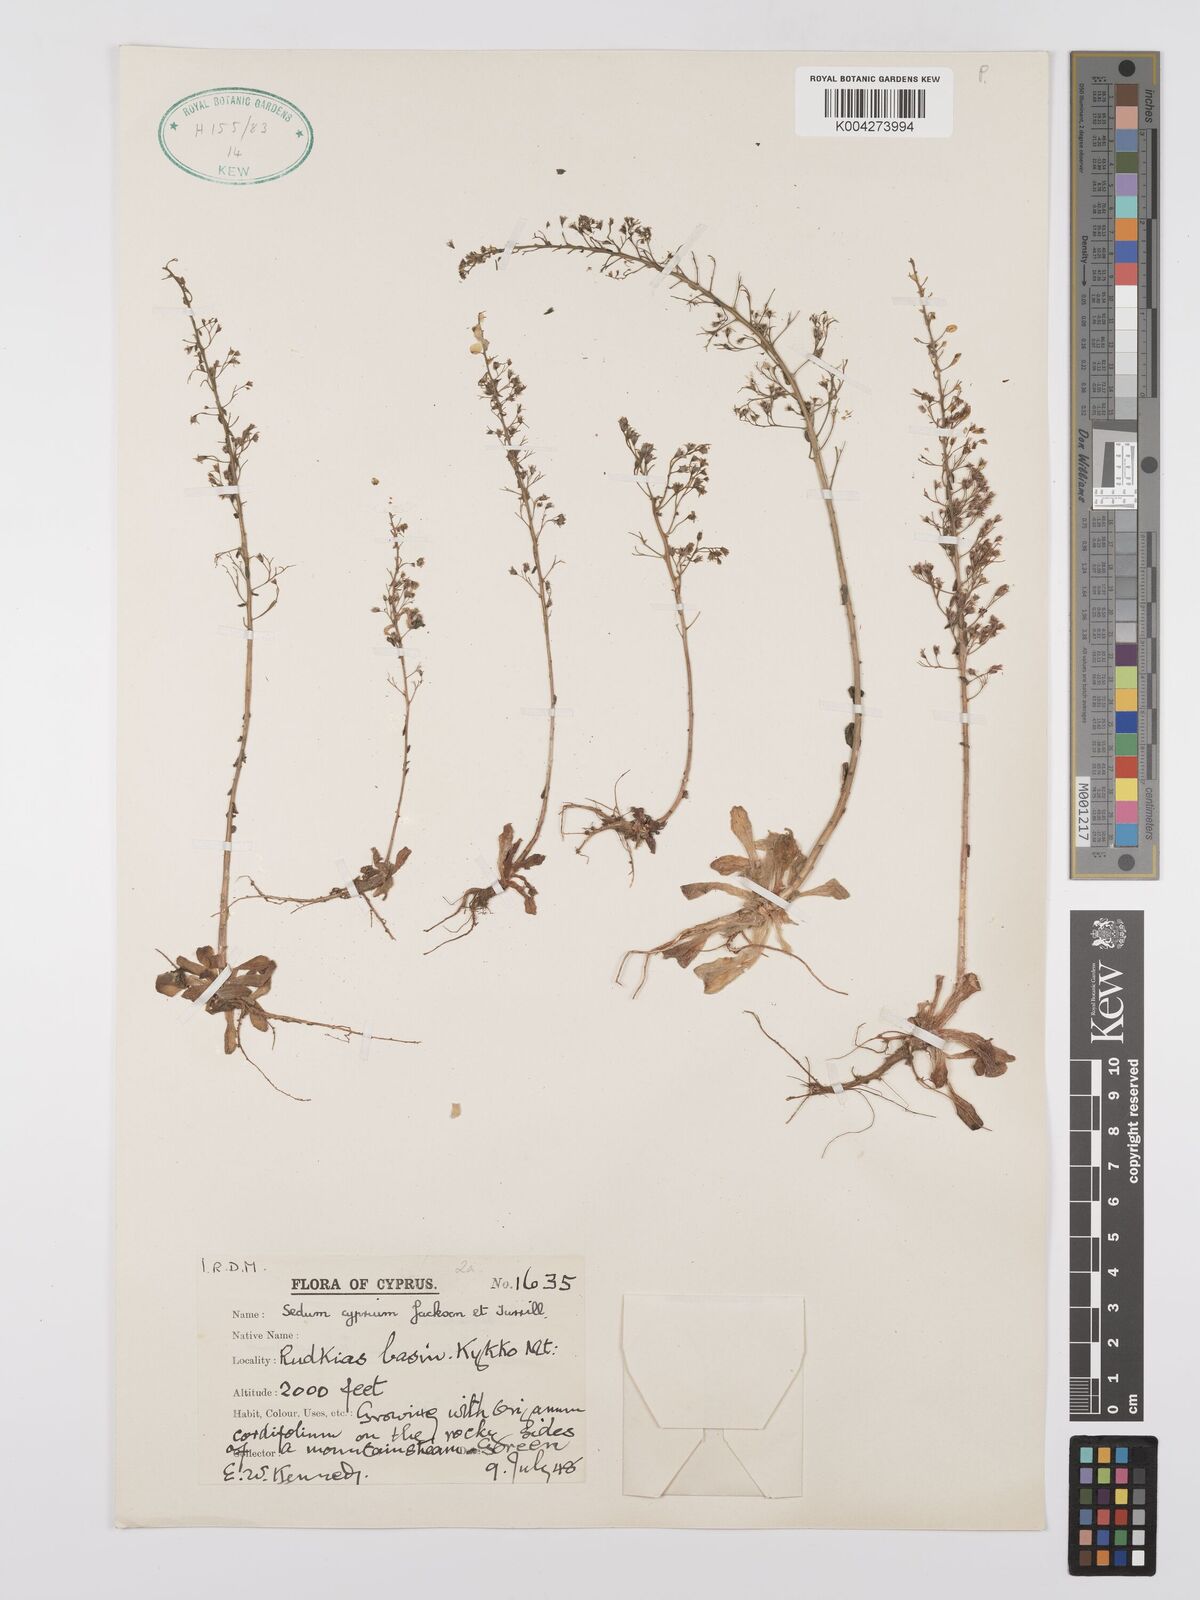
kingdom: Plantae
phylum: Tracheophyta
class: Magnoliopsida
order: Saxifragales
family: Crassulaceae
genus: Sedum
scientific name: Sedum cyprium
